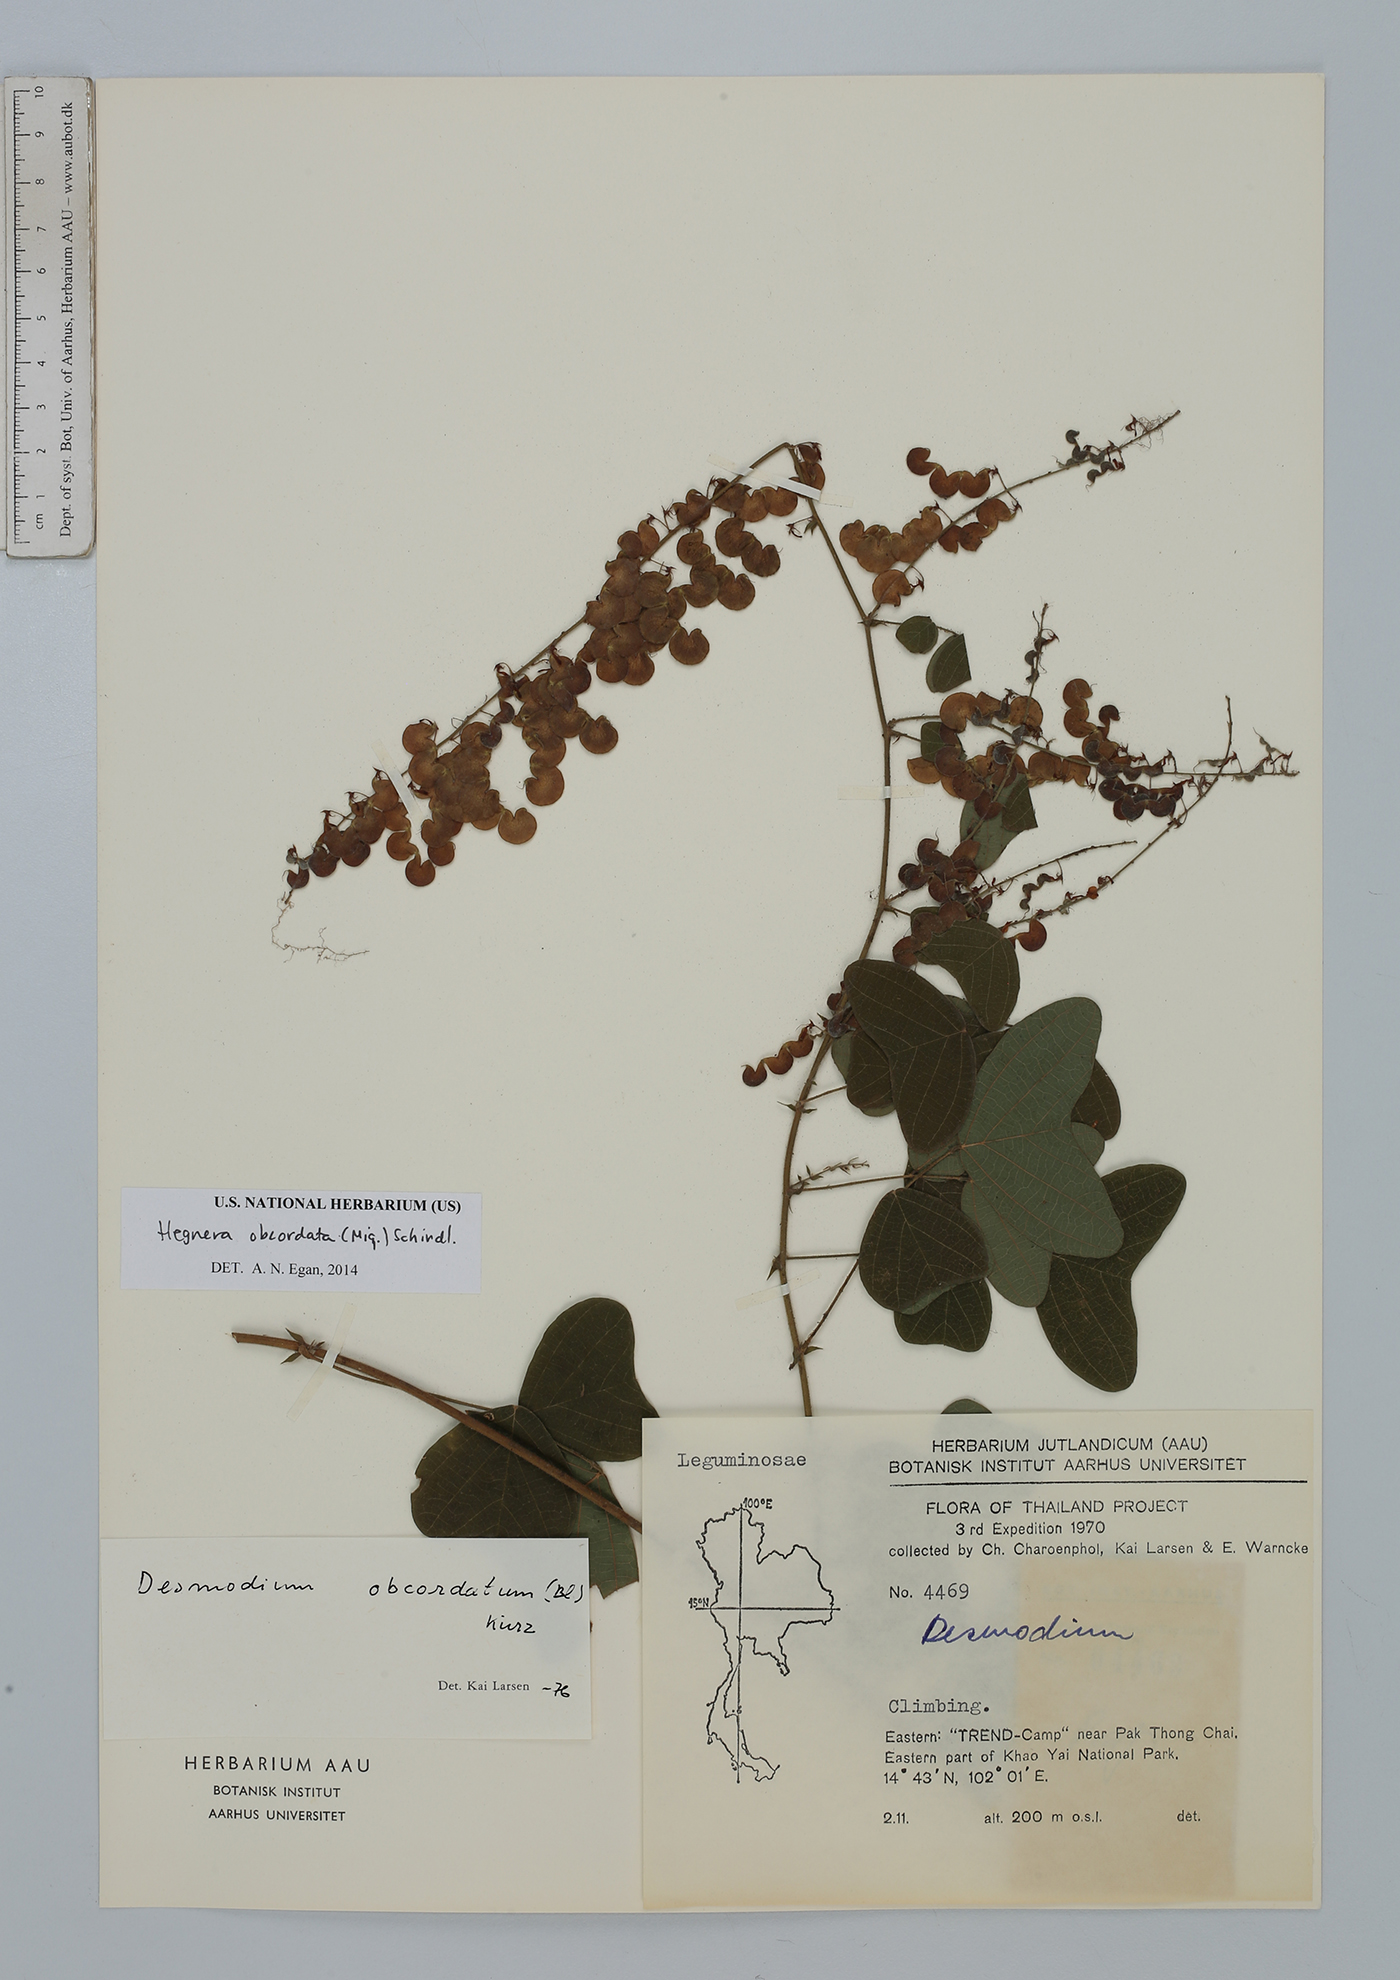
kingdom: Plantae
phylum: Tracheophyta
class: Magnoliopsida
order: Fabales
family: Fabaceae
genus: Hegnera
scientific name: Hegnera obcordata
